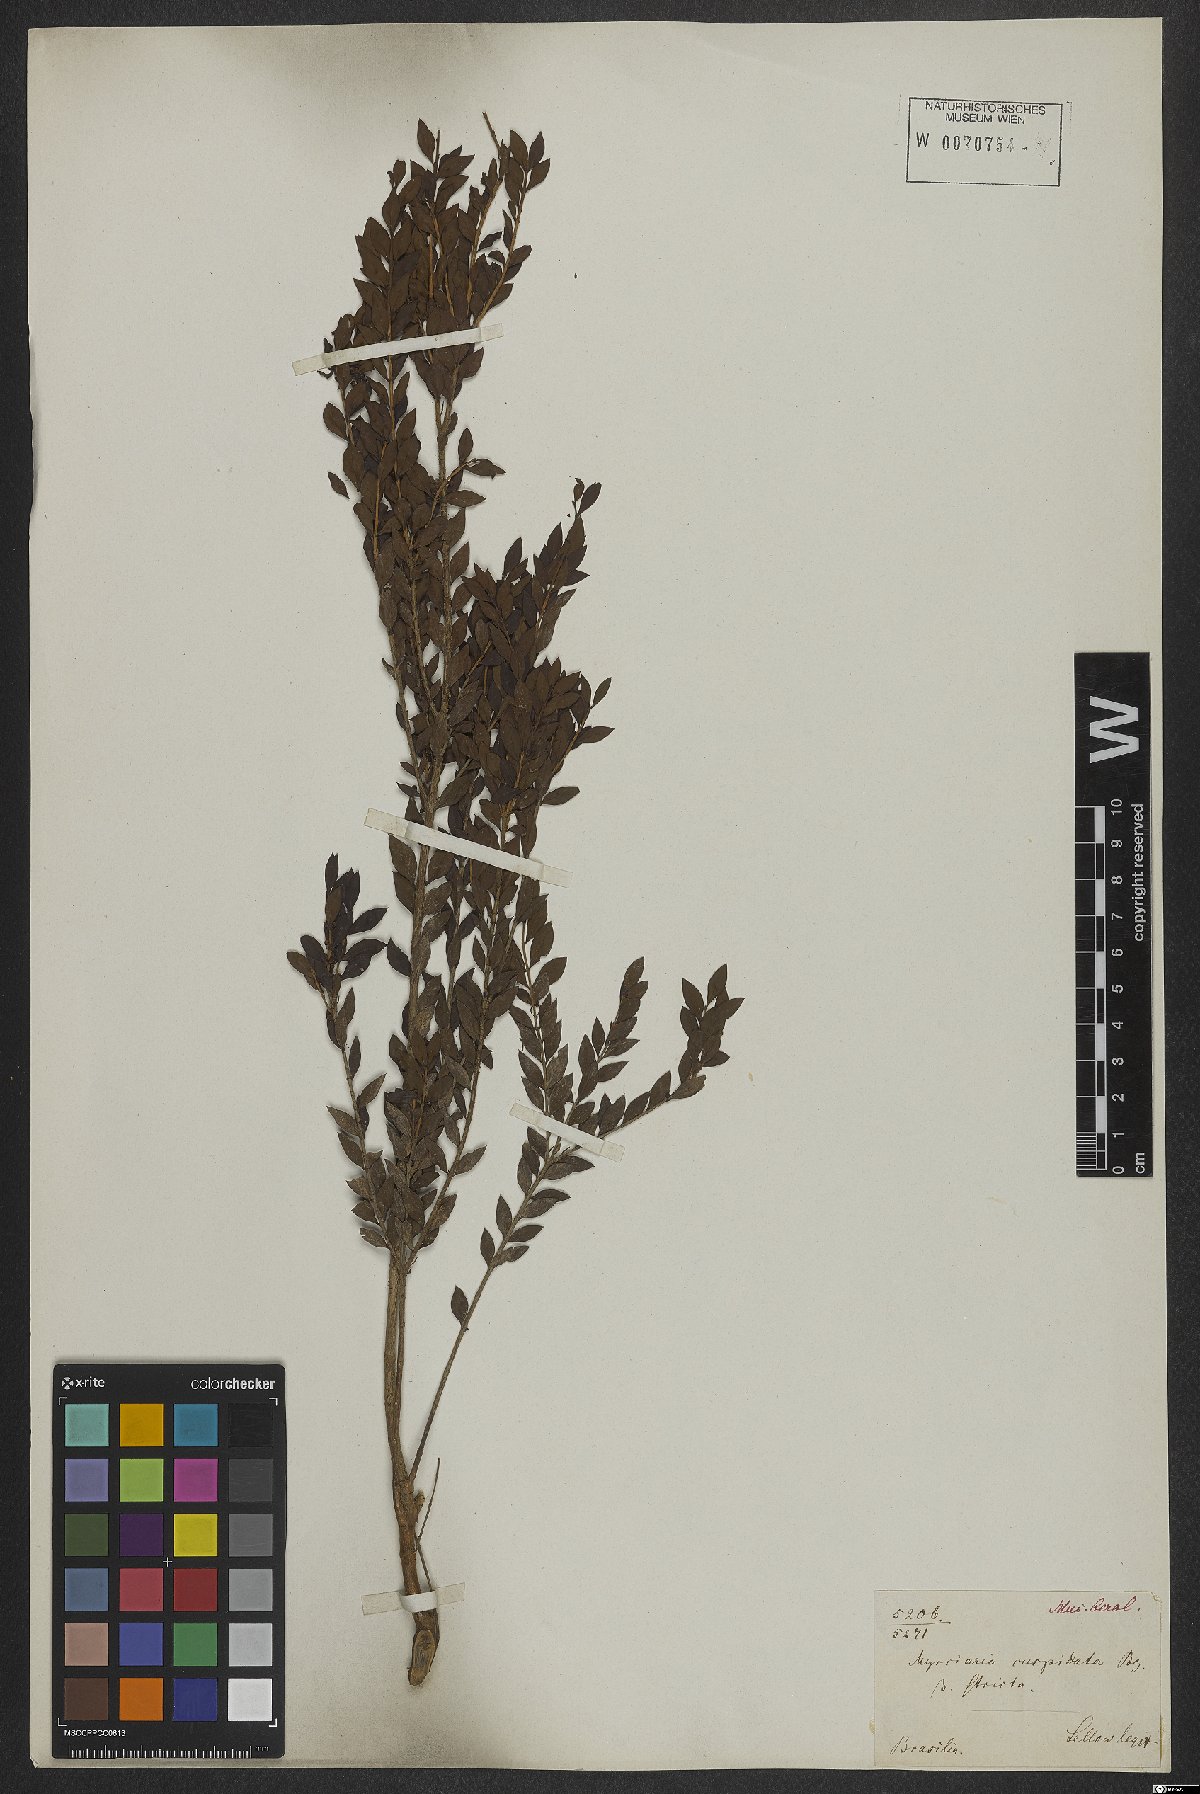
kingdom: Plantae
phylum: Tracheophyta
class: Magnoliopsida
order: Myrtales
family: Myrtaceae
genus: Myrciaria
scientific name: Myrciaria tenella
